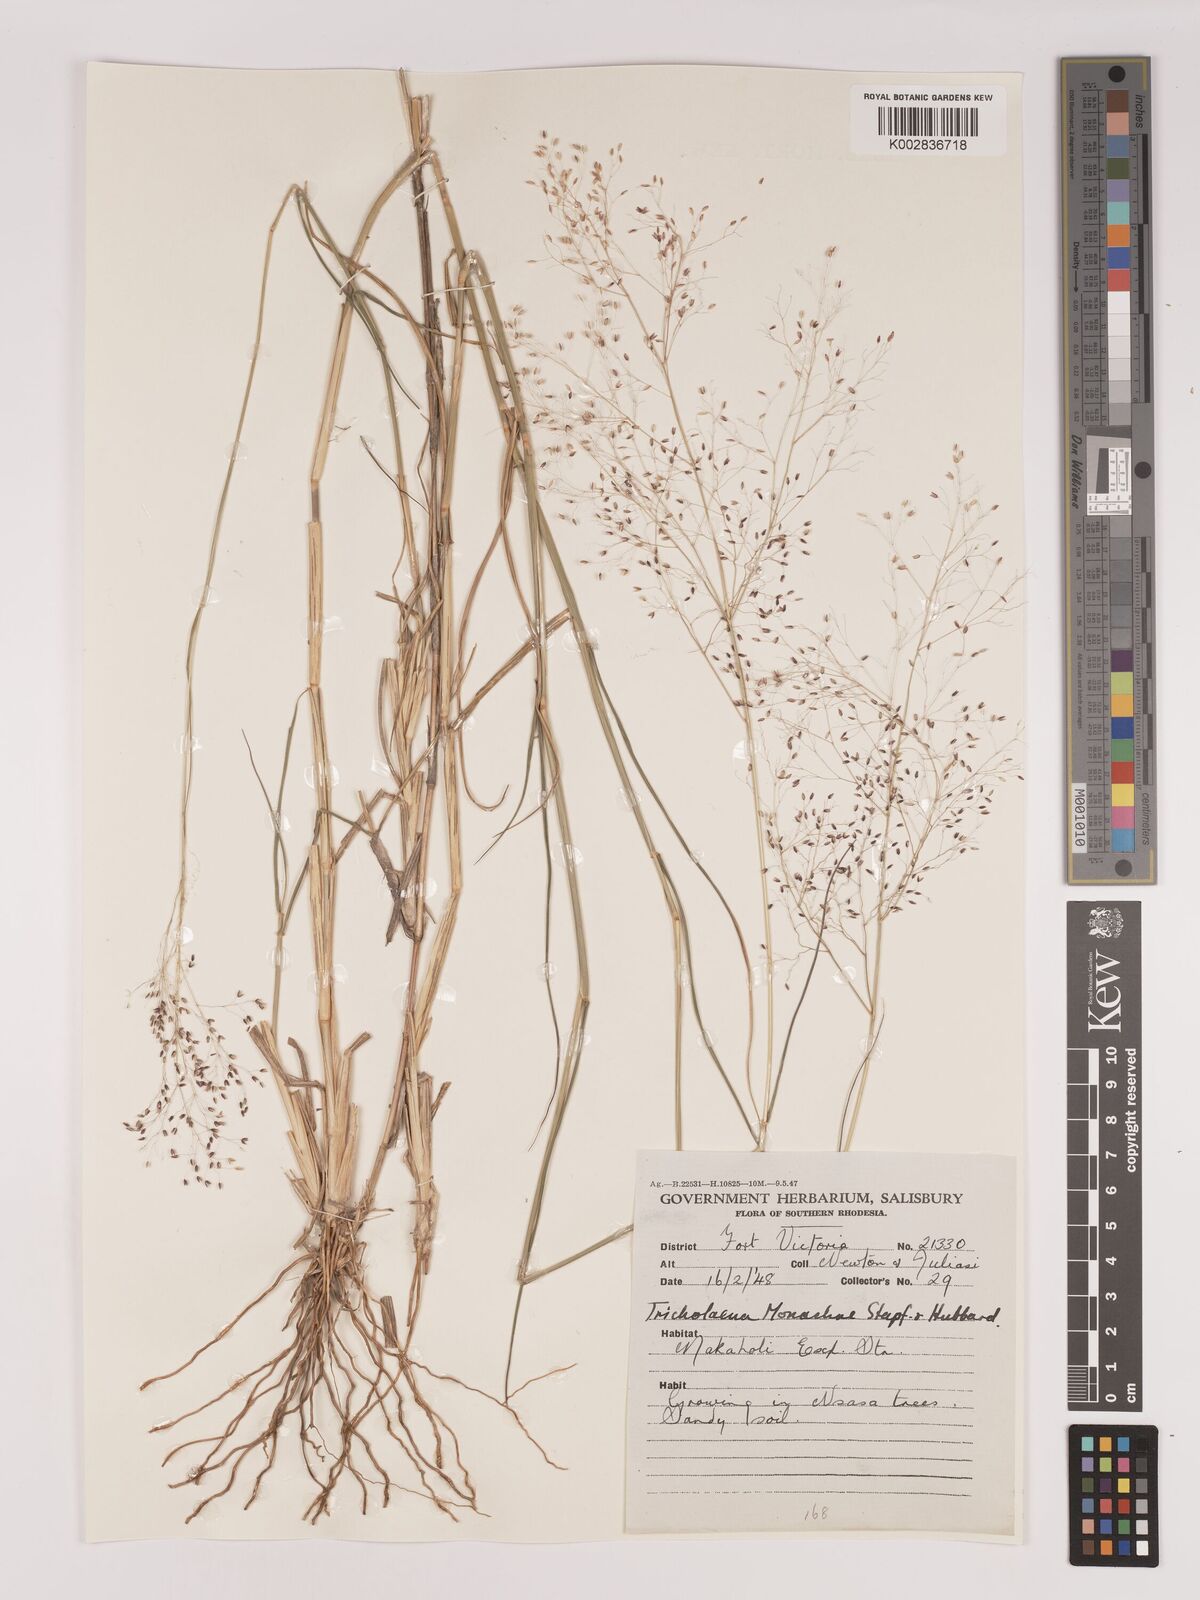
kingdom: Plantae
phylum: Tracheophyta
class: Liliopsida
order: Poales
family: Poaceae
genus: Tricholaena
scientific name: Tricholaena monachne
